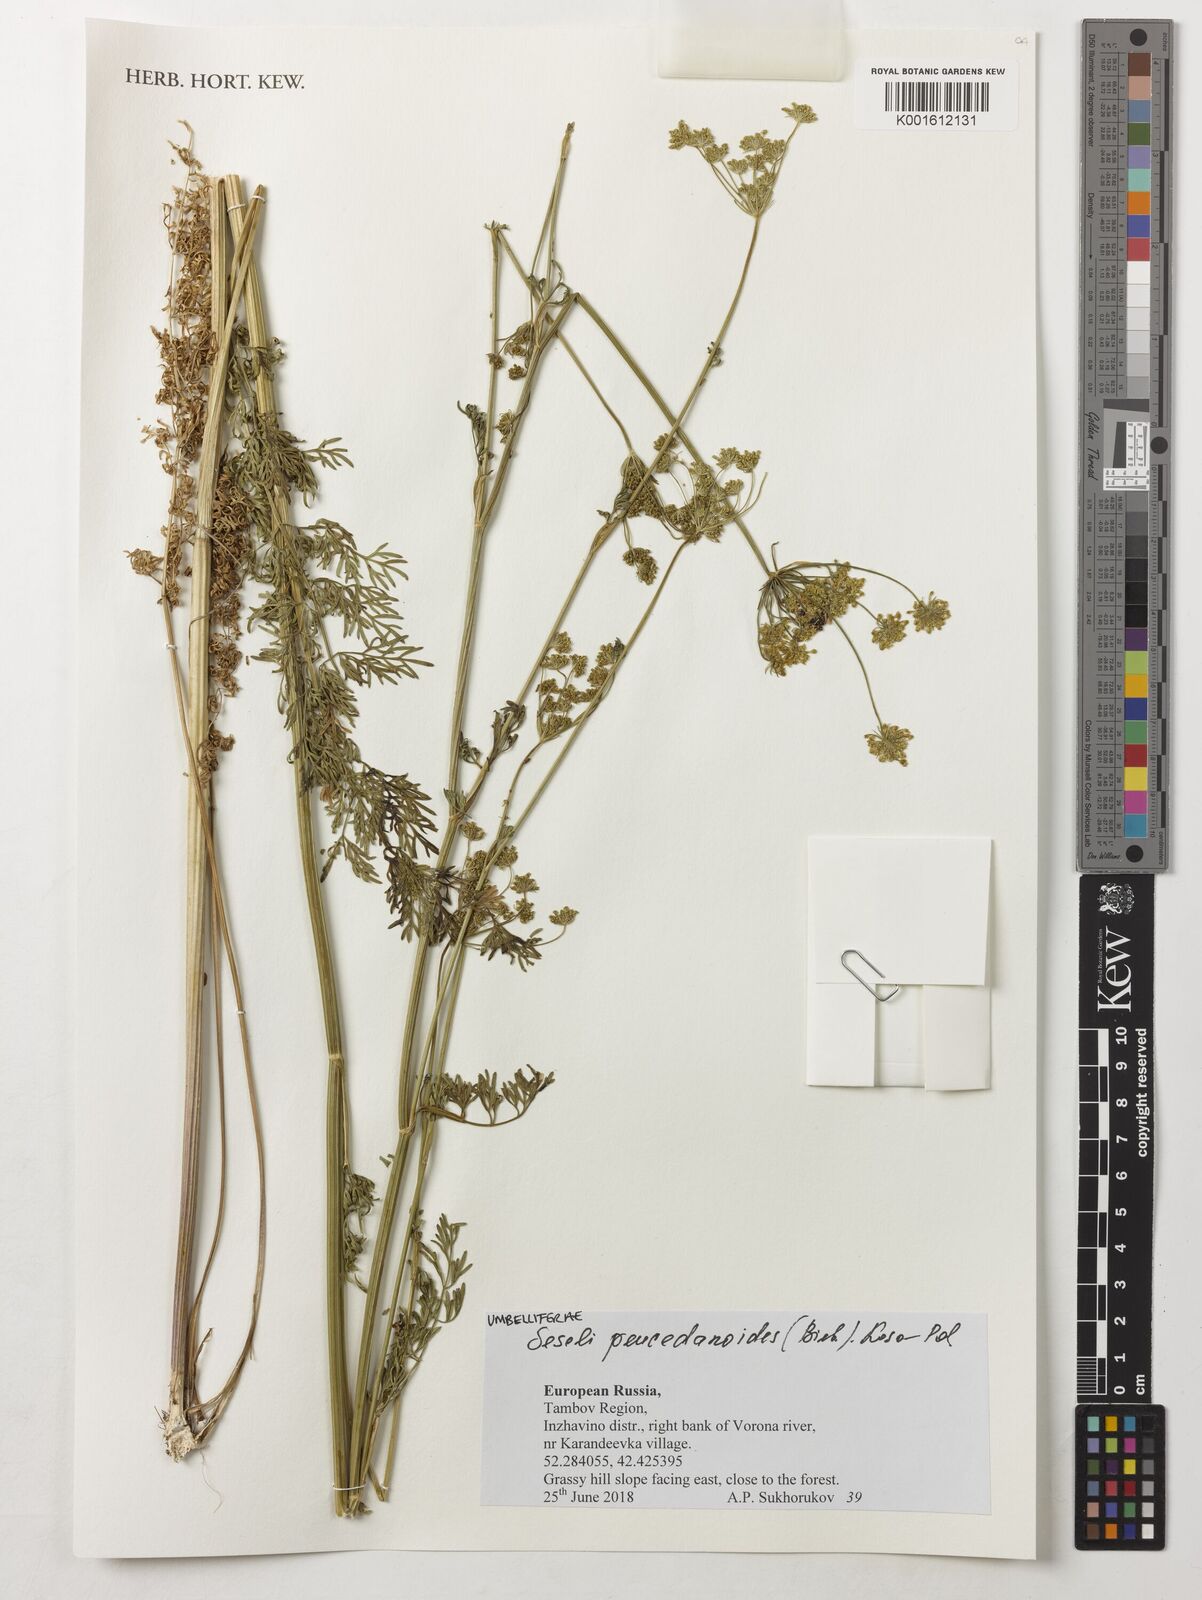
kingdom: Plantae
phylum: Tracheophyta
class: Magnoliopsida
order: Apiales
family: Apiaceae
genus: Gasparinia
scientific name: Gasparinia peucedanoides
